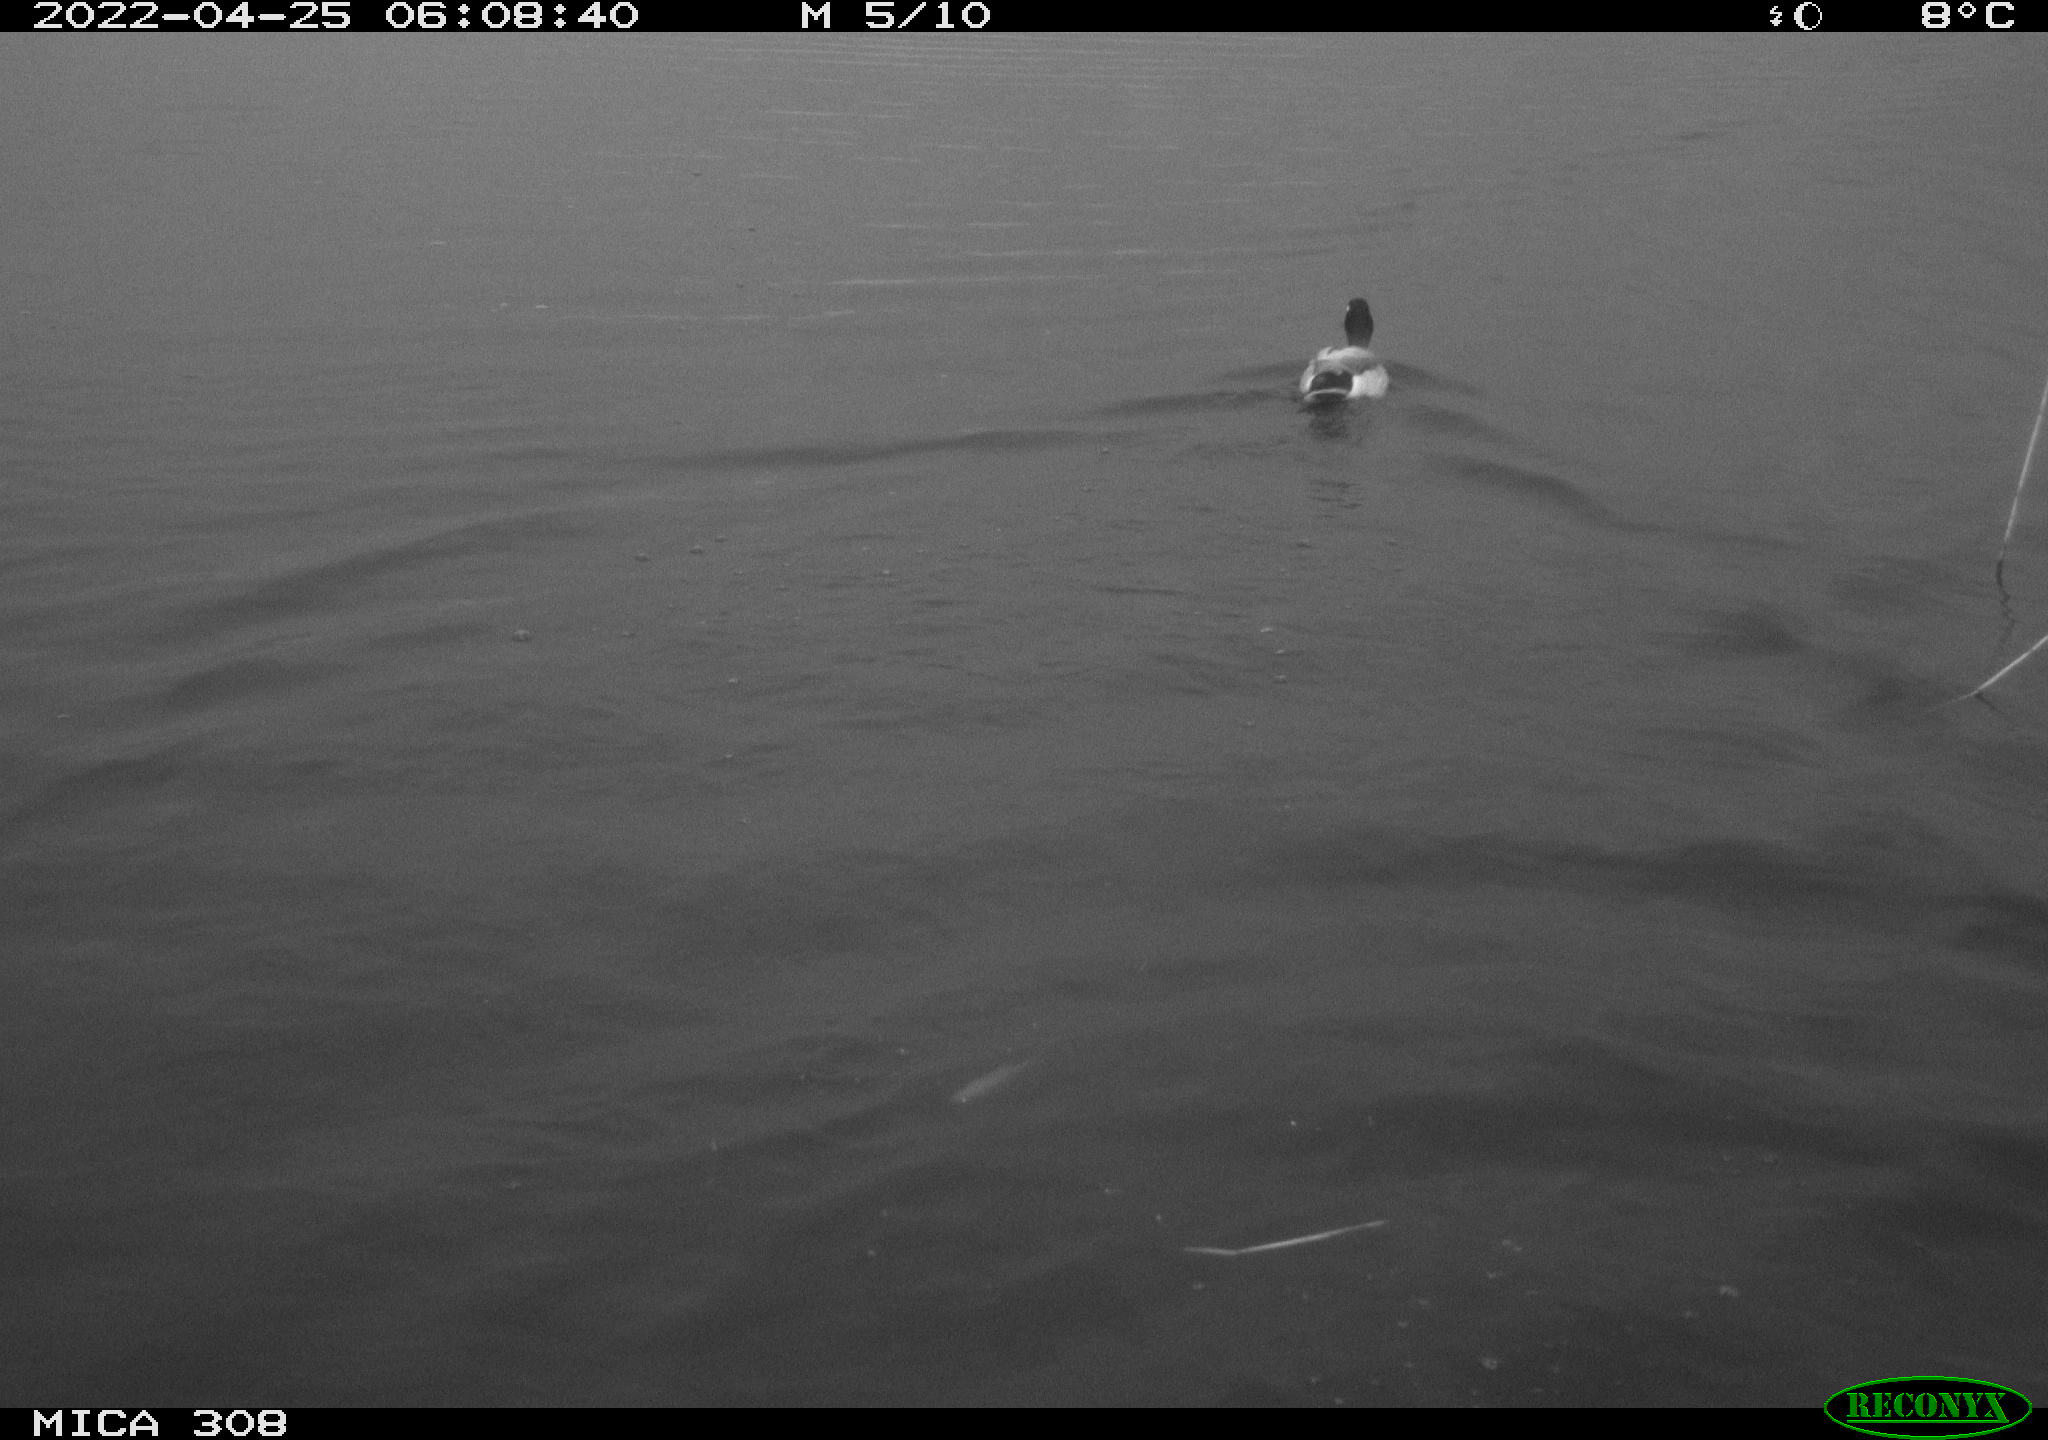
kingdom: Animalia
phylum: Chordata
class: Aves
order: Anseriformes
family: Anatidae
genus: Anas
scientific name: Anas platyrhynchos
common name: Mallard
